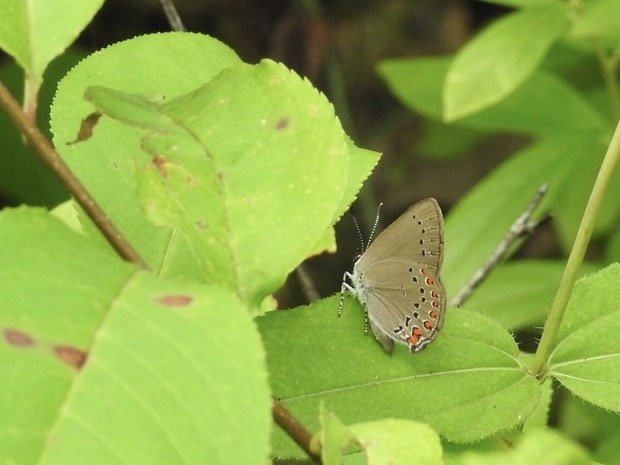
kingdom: Animalia
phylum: Arthropoda
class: Insecta
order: Lepidoptera
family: Lycaenidae
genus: Harkenclenus
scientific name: Harkenclenus titus
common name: Coral Hairstreak
